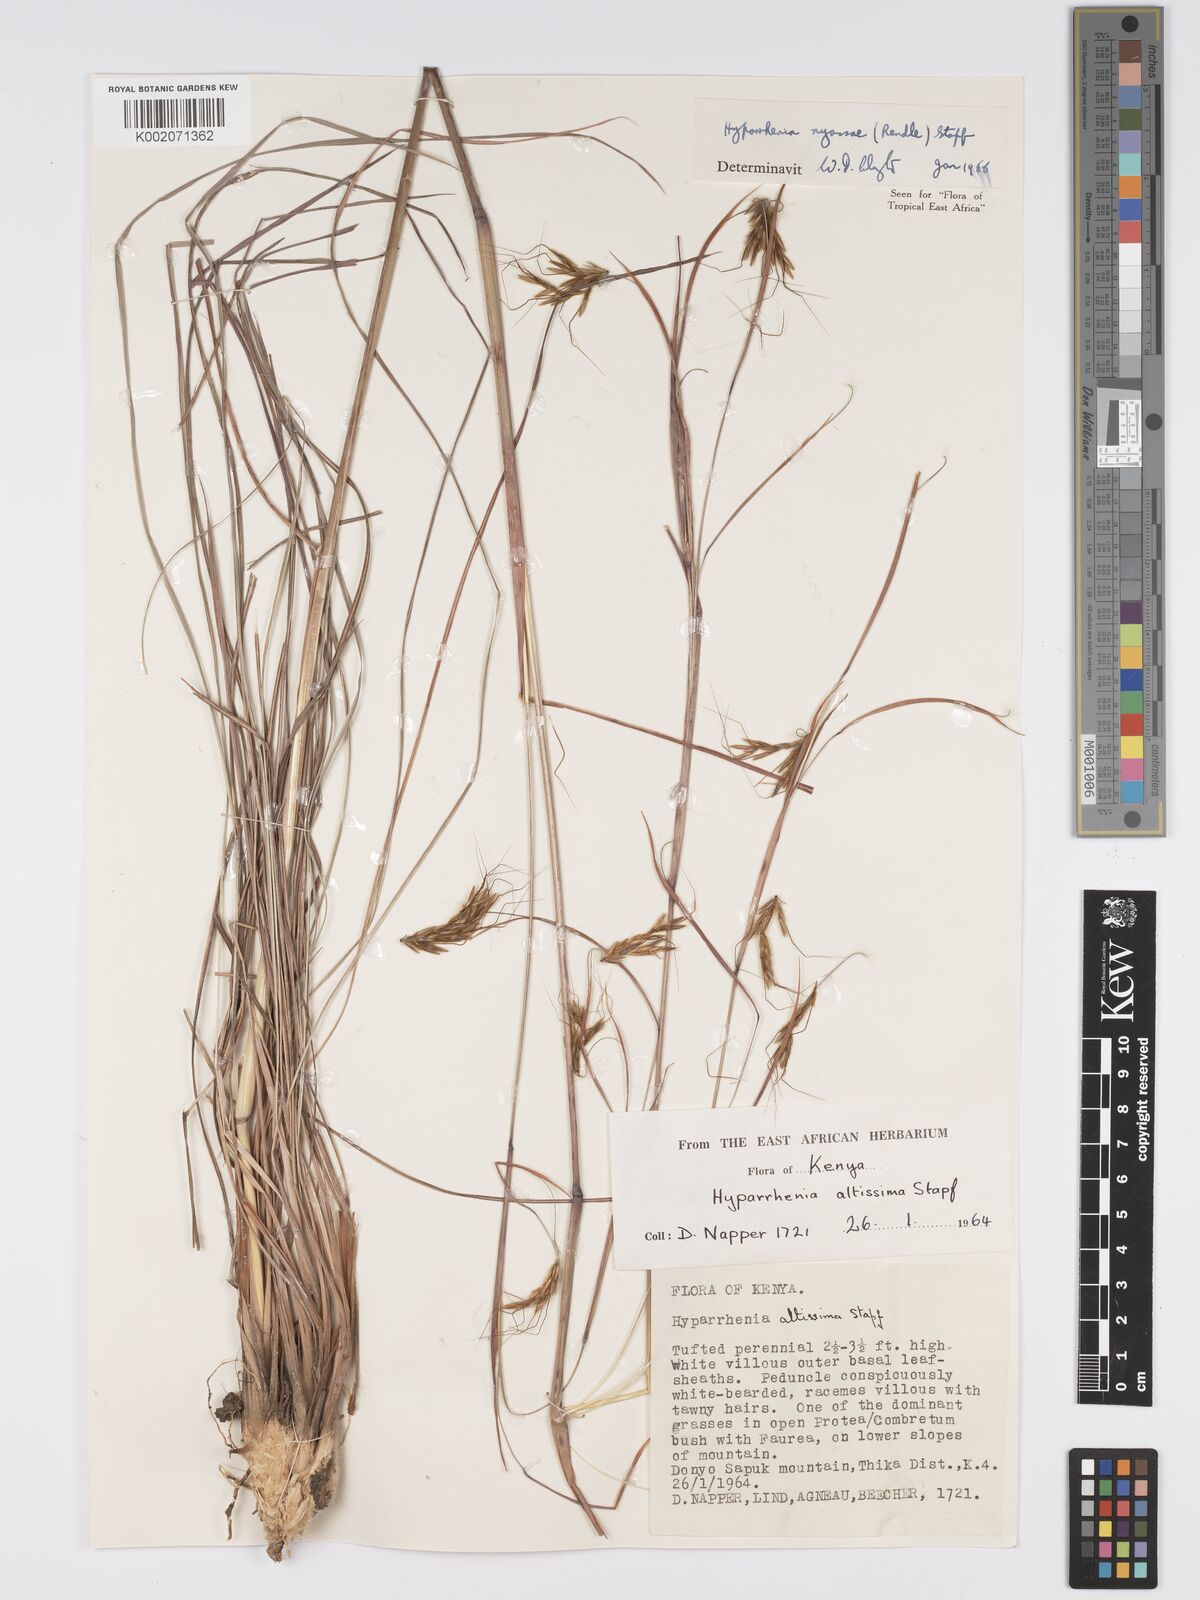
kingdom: Plantae
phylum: Tracheophyta
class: Liliopsida
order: Poales
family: Poaceae
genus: Hyparrhenia
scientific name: Hyparrhenia nyassae
